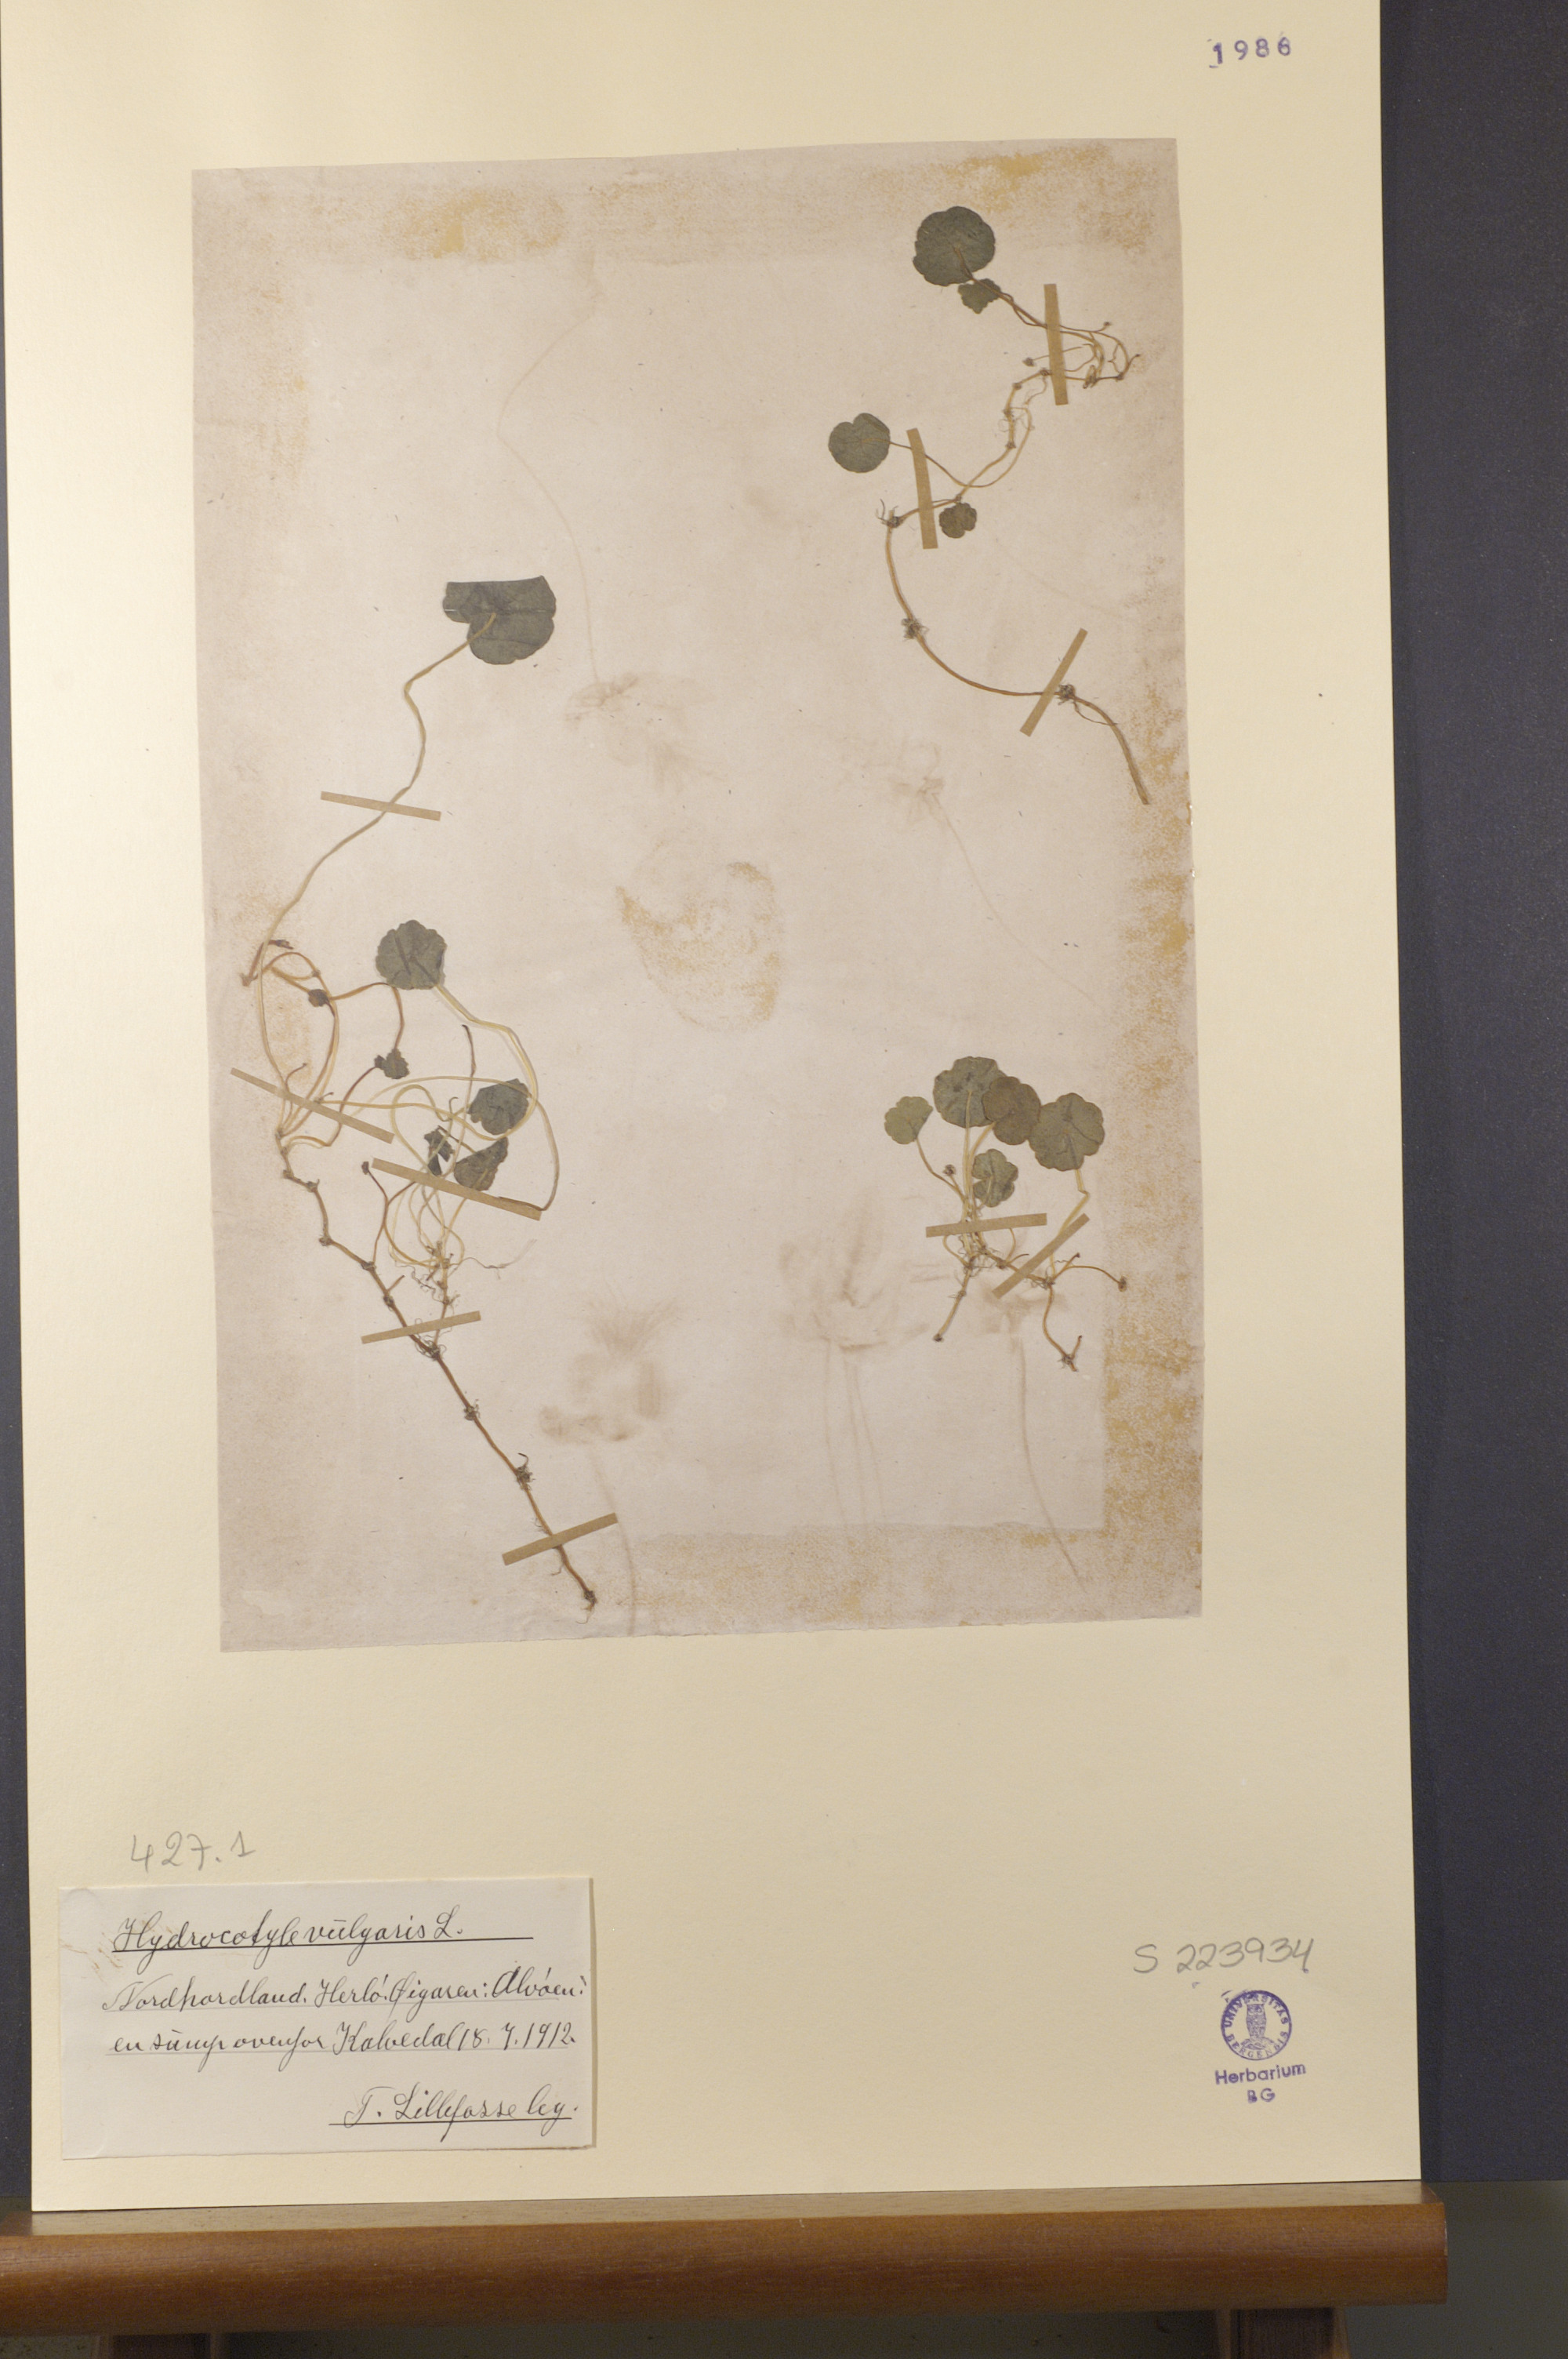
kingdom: Plantae
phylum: Tracheophyta
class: Magnoliopsida
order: Apiales
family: Araliaceae
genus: Hydrocotyle
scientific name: Hydrocotyle vulgaris
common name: Marsh pennywort
